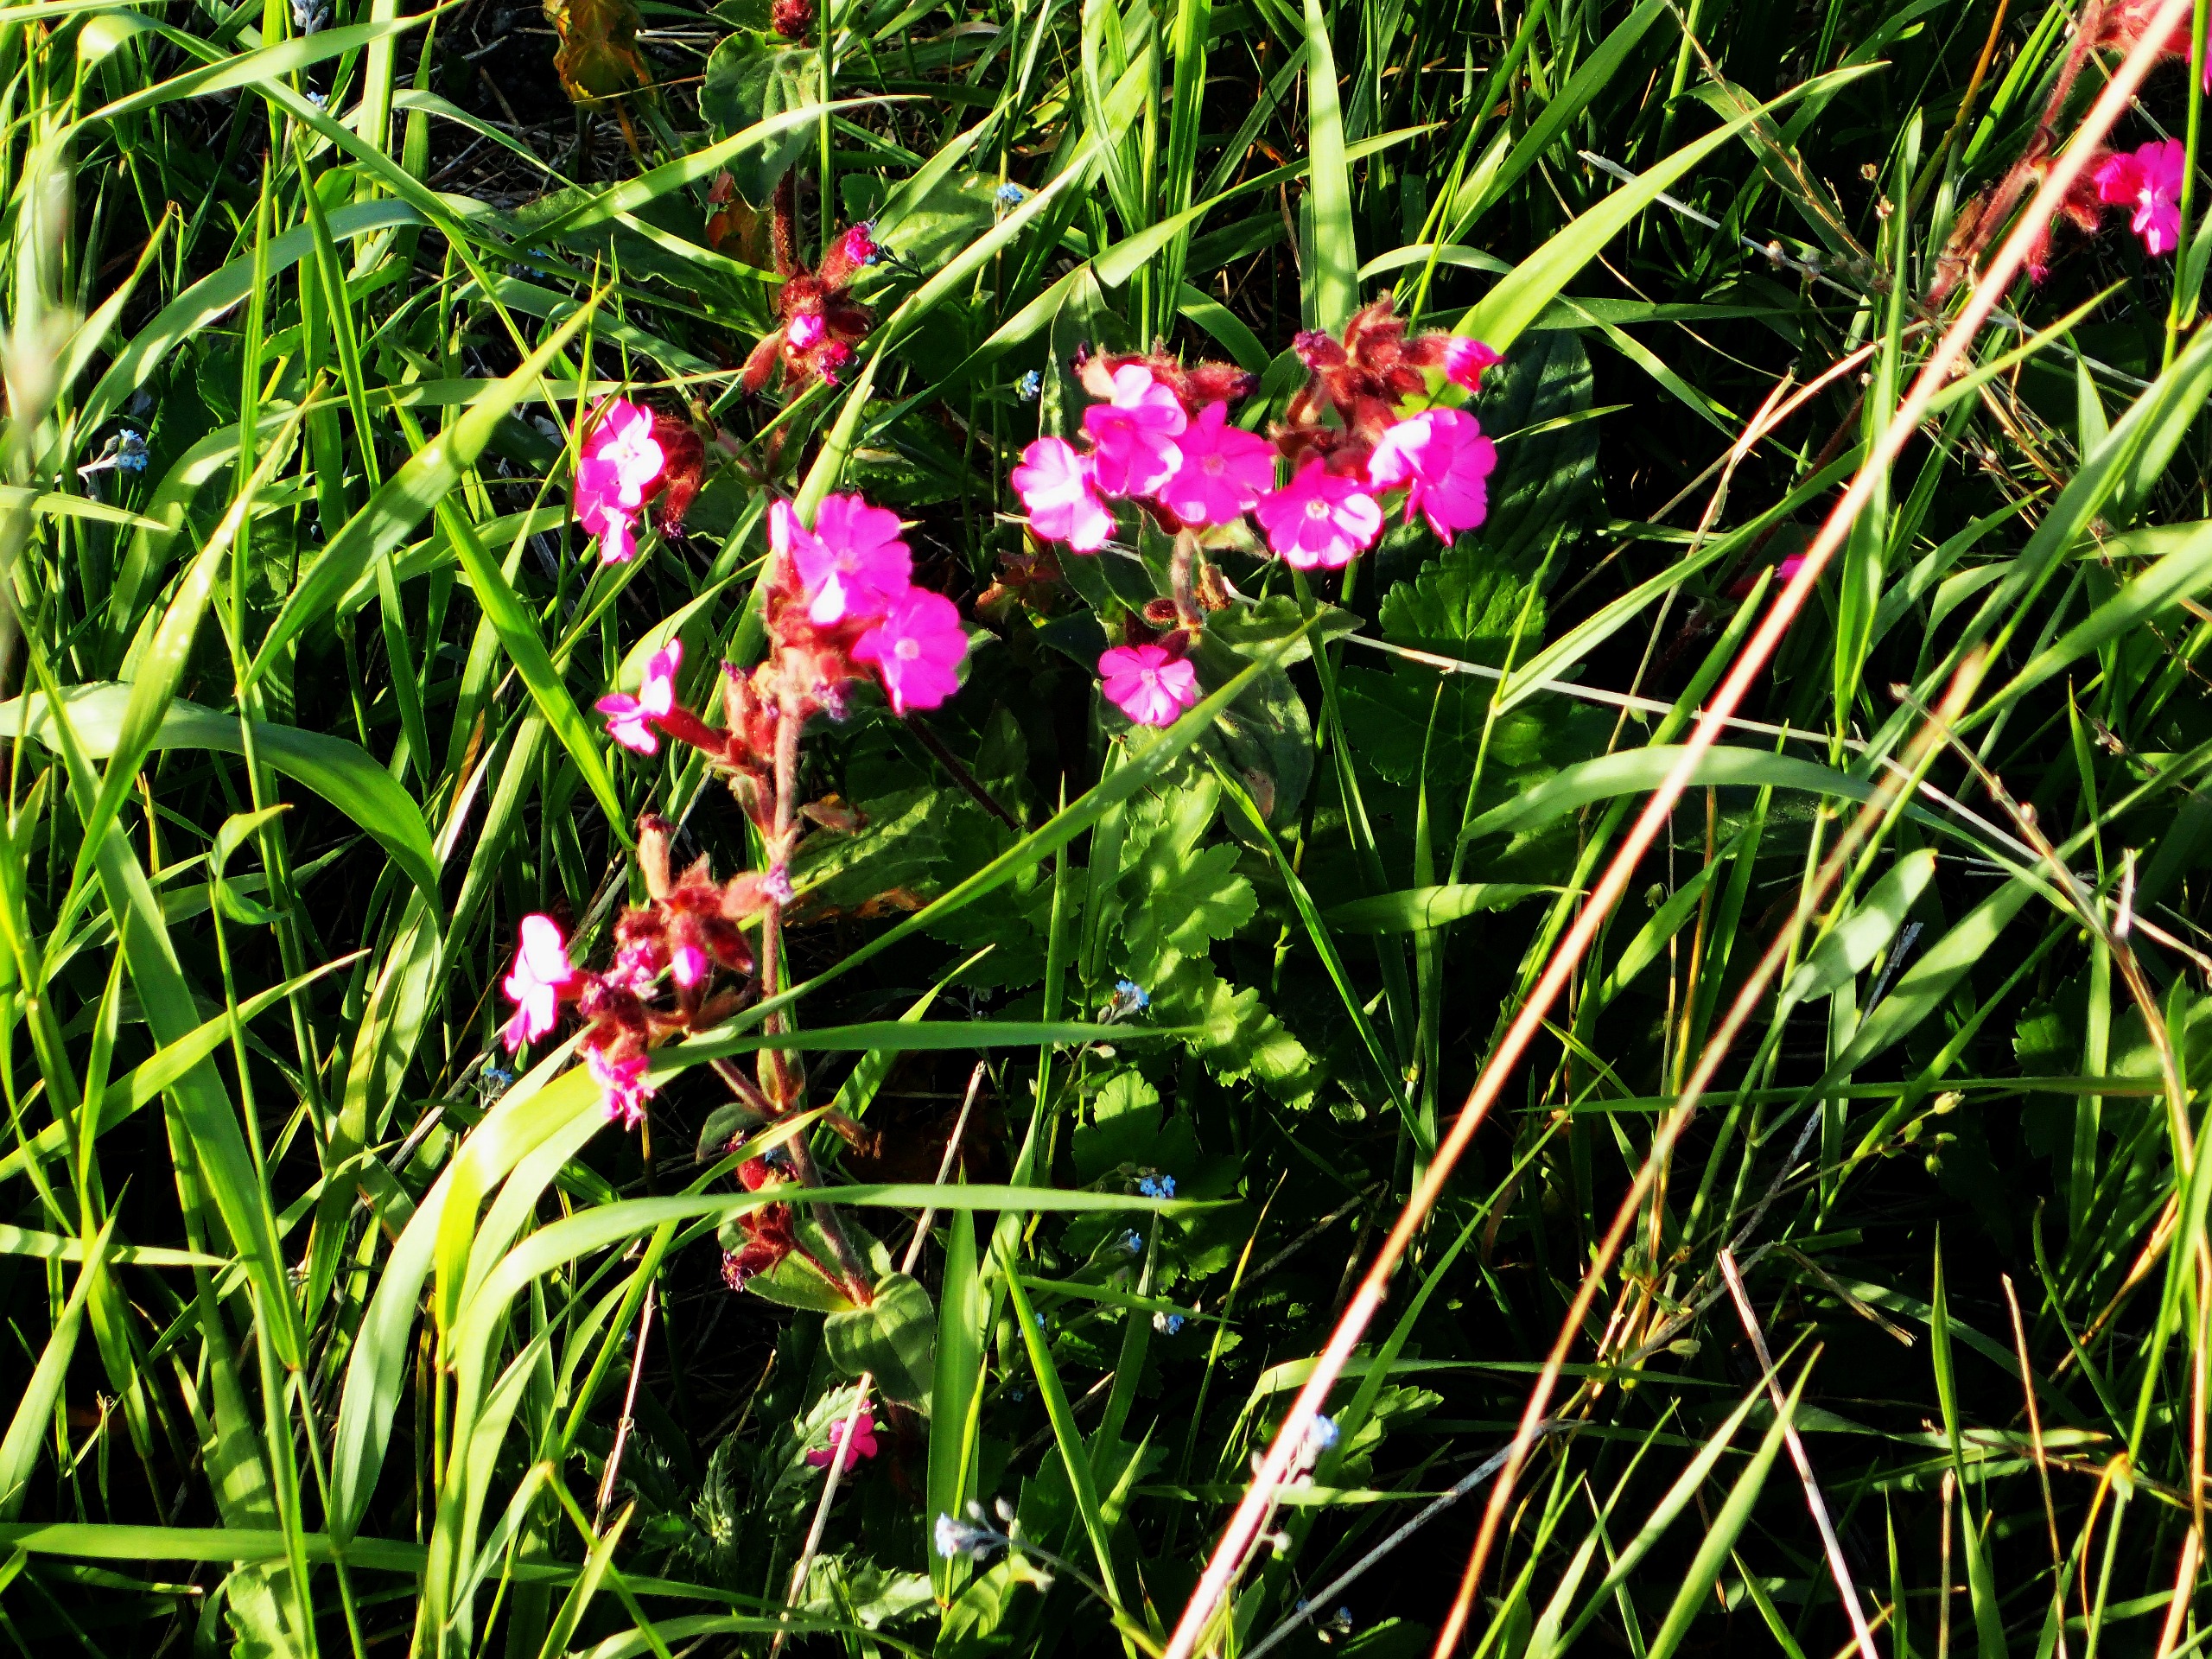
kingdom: Plantae
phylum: Tracheophyta
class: Magnoliopsida
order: Caryophyllales
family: Caryophyllaceae
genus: Silene
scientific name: Silene dioica
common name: Dagpragtstjerne
